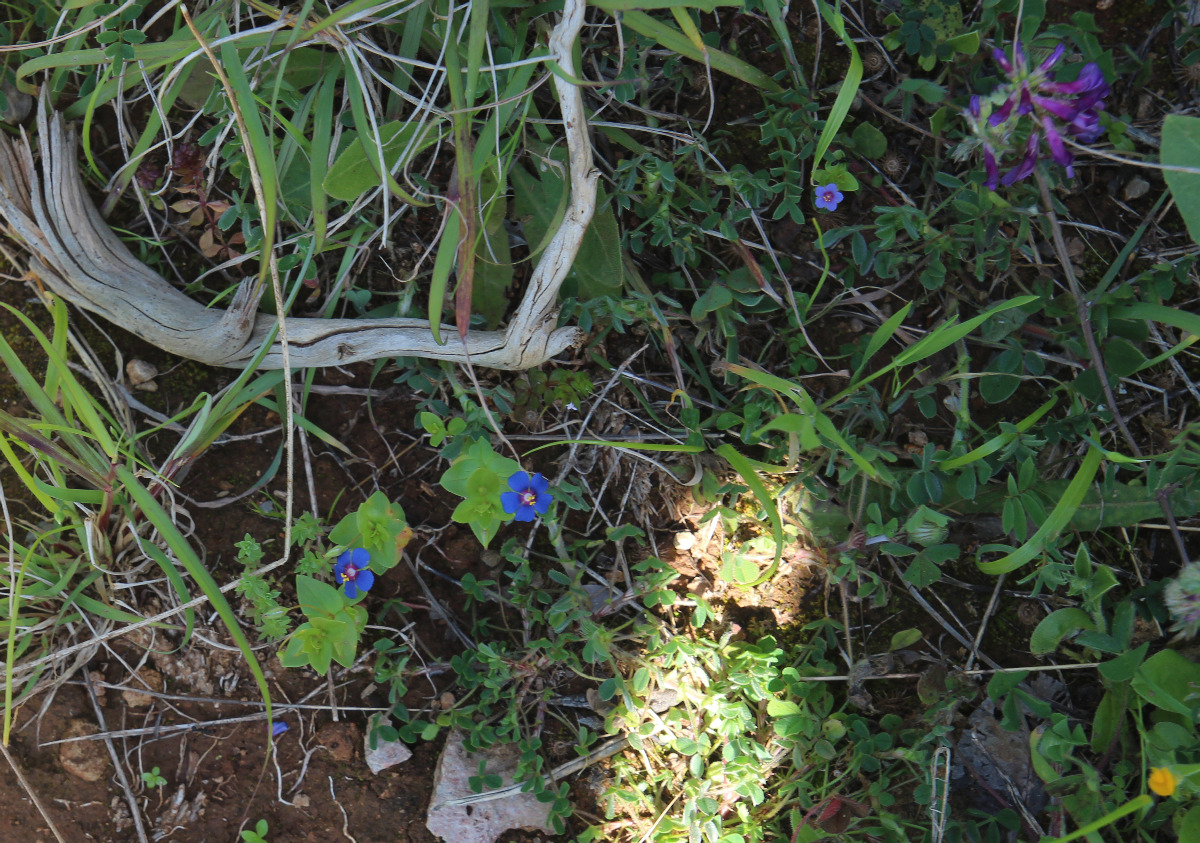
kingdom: Plantae
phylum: Tracheophyta
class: Magnoliopsida
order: Ericales
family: Primulaceae
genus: Lysimachia
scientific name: Lysimachia arvensis
